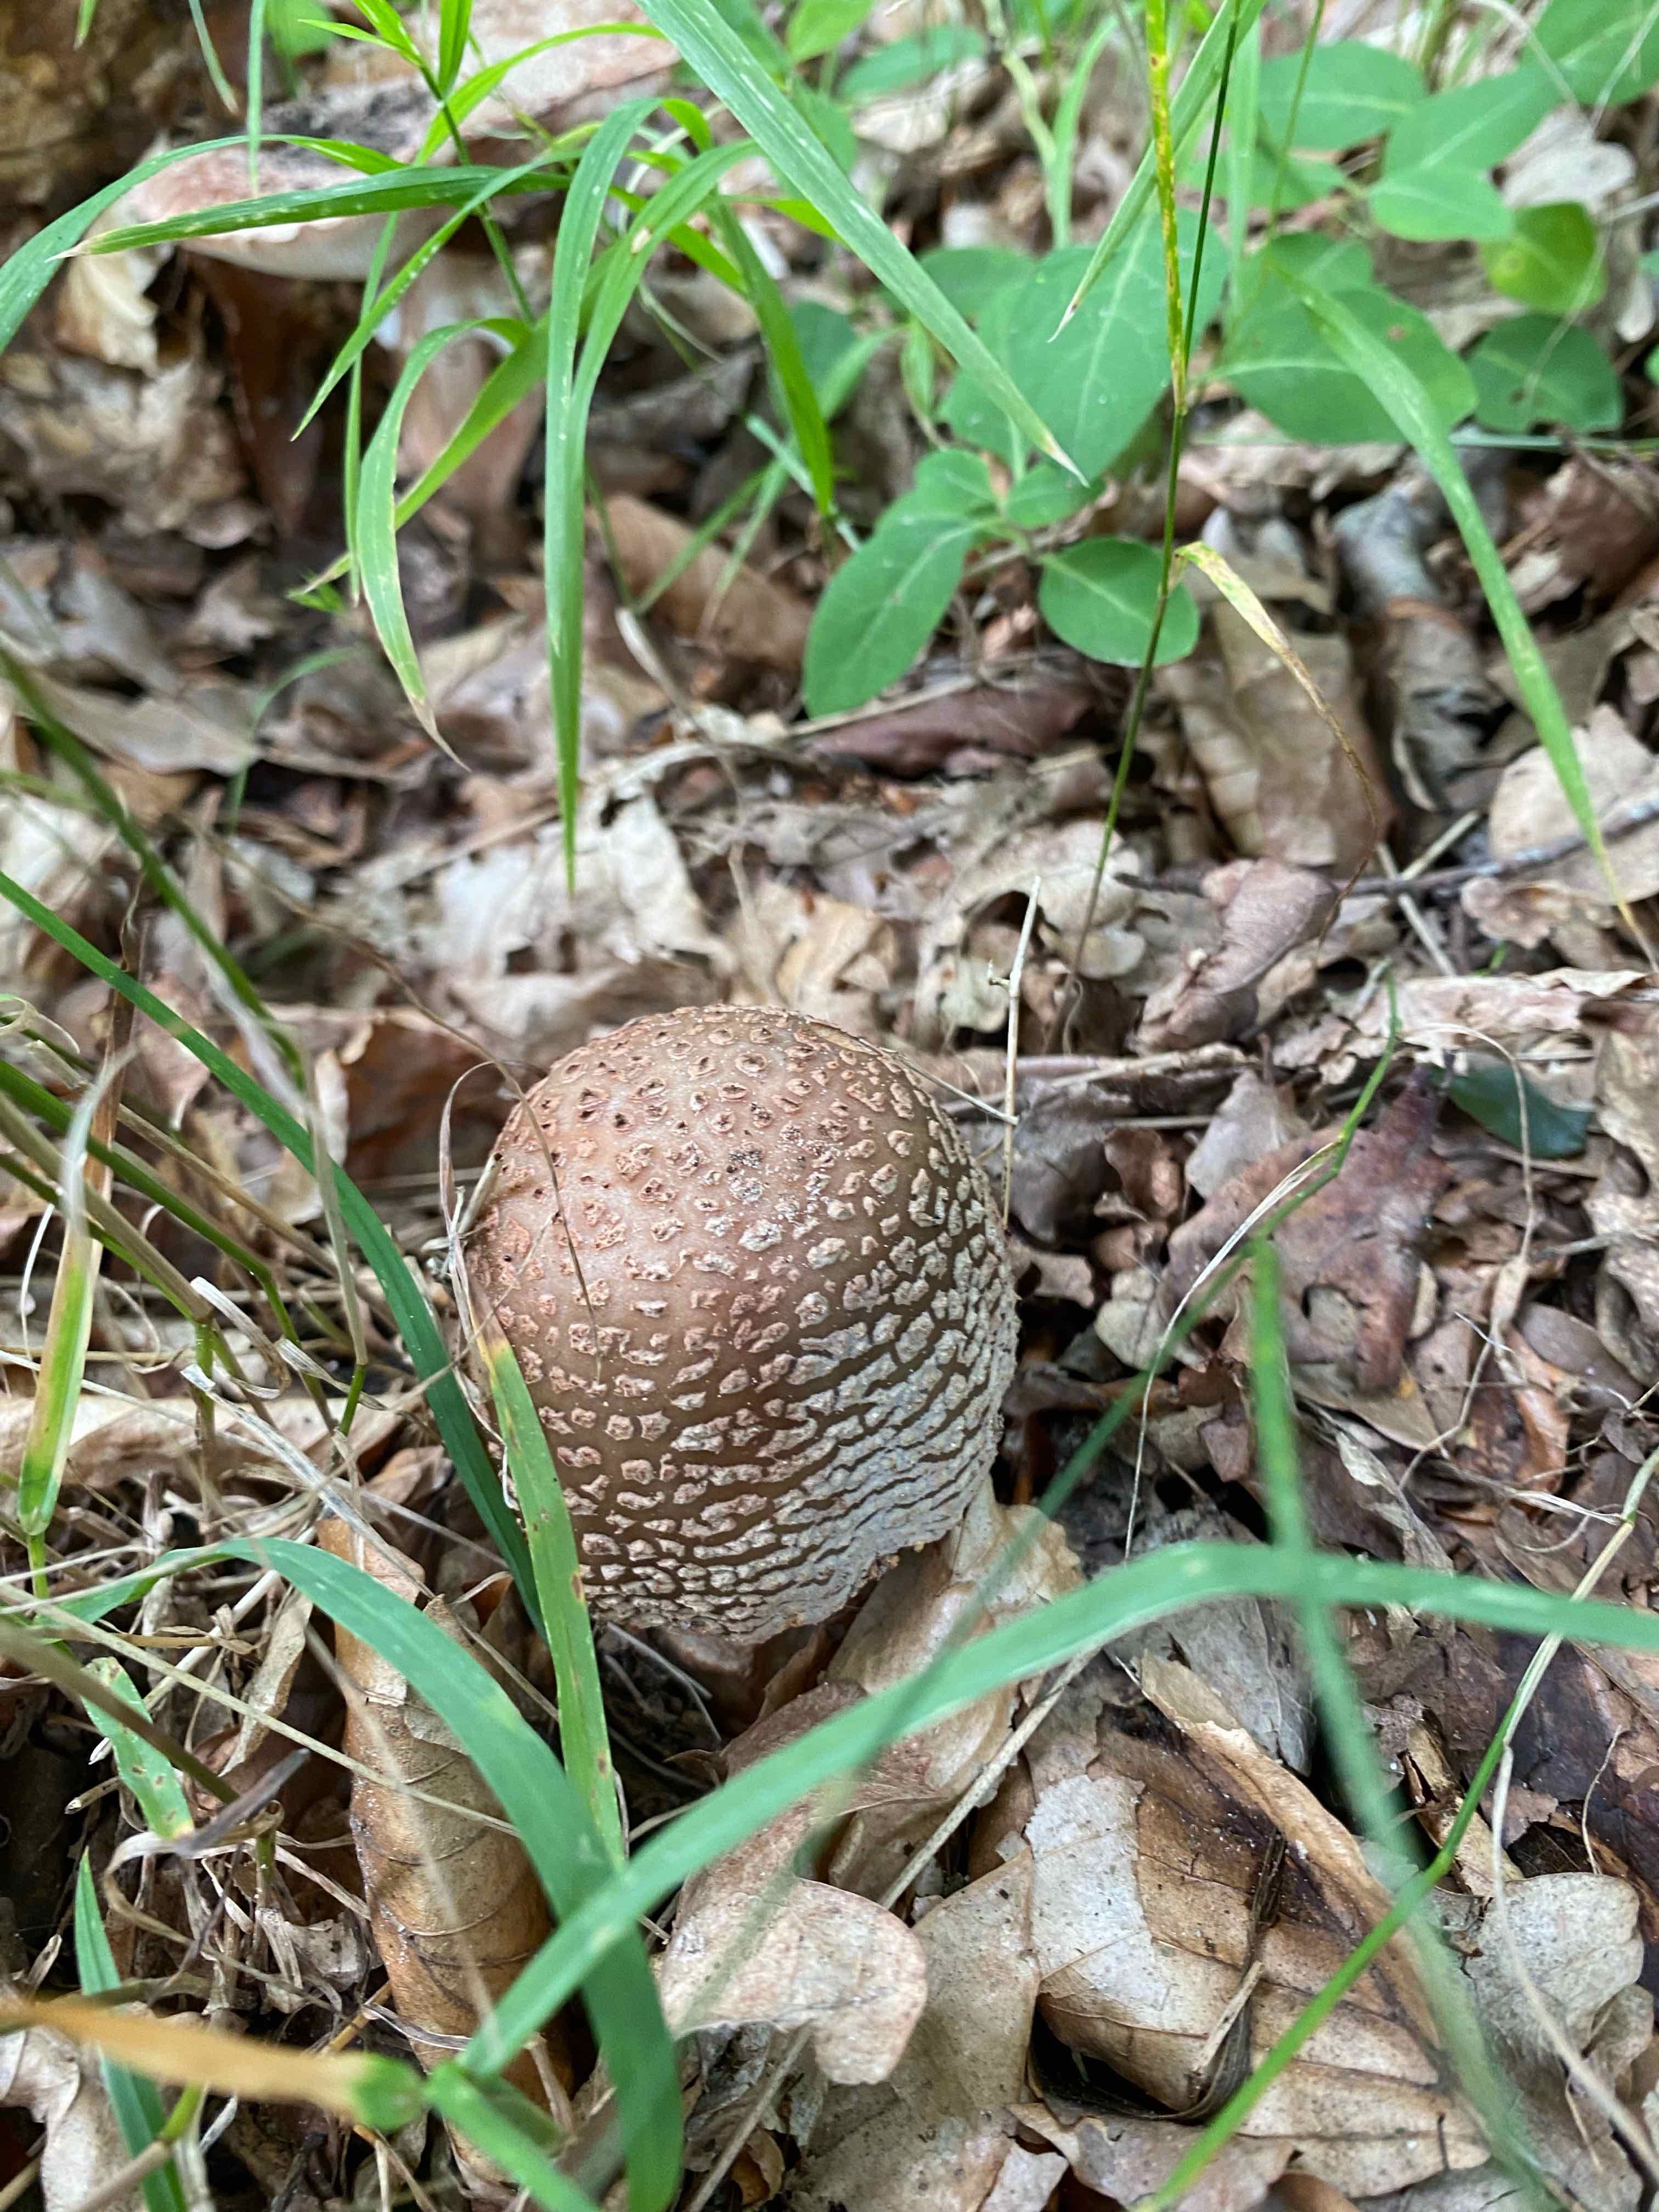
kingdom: Fungi
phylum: Basidiomycota
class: Agaricomycetes
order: Agaricales
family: Amanitaceae
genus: Amanita
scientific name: Amanita rubescens
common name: rødmende fluesvamp
